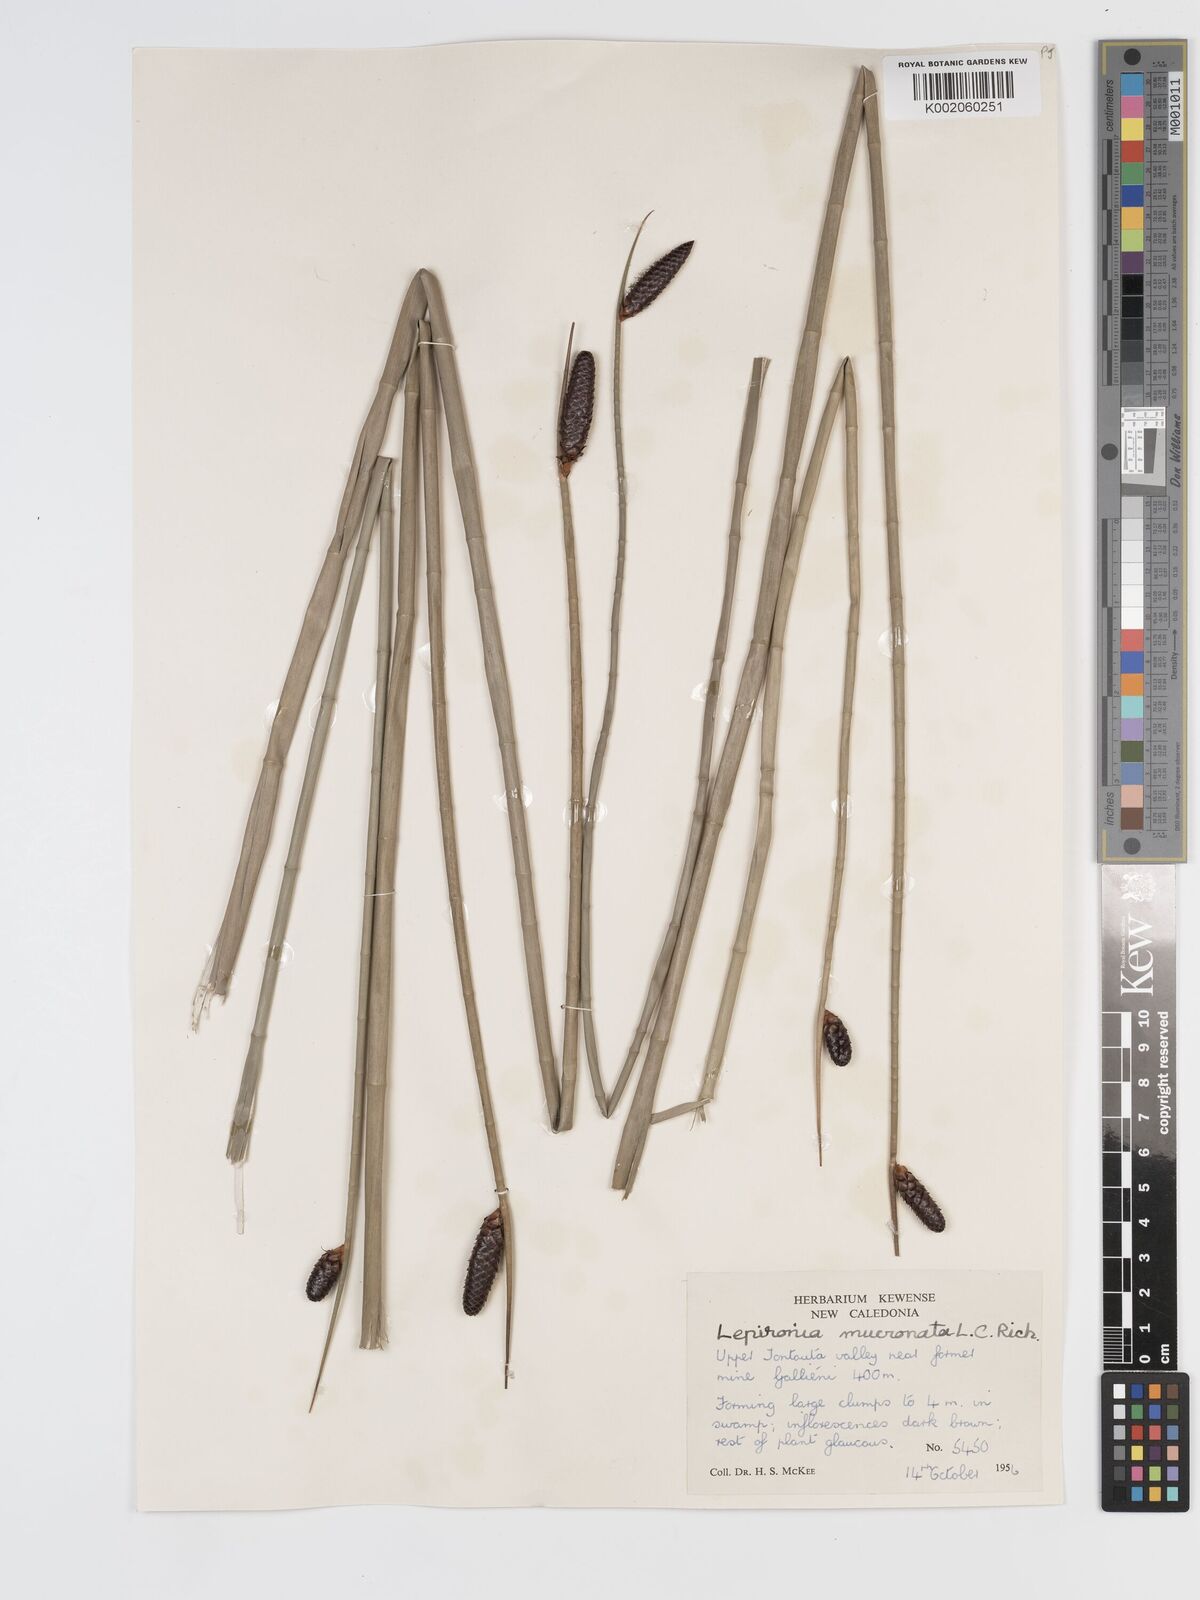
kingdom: Plantae
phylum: Tracheophyta
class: Liliopsida
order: Poales
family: Cyperaceae
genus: Lepironia
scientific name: Lepironia articulata
